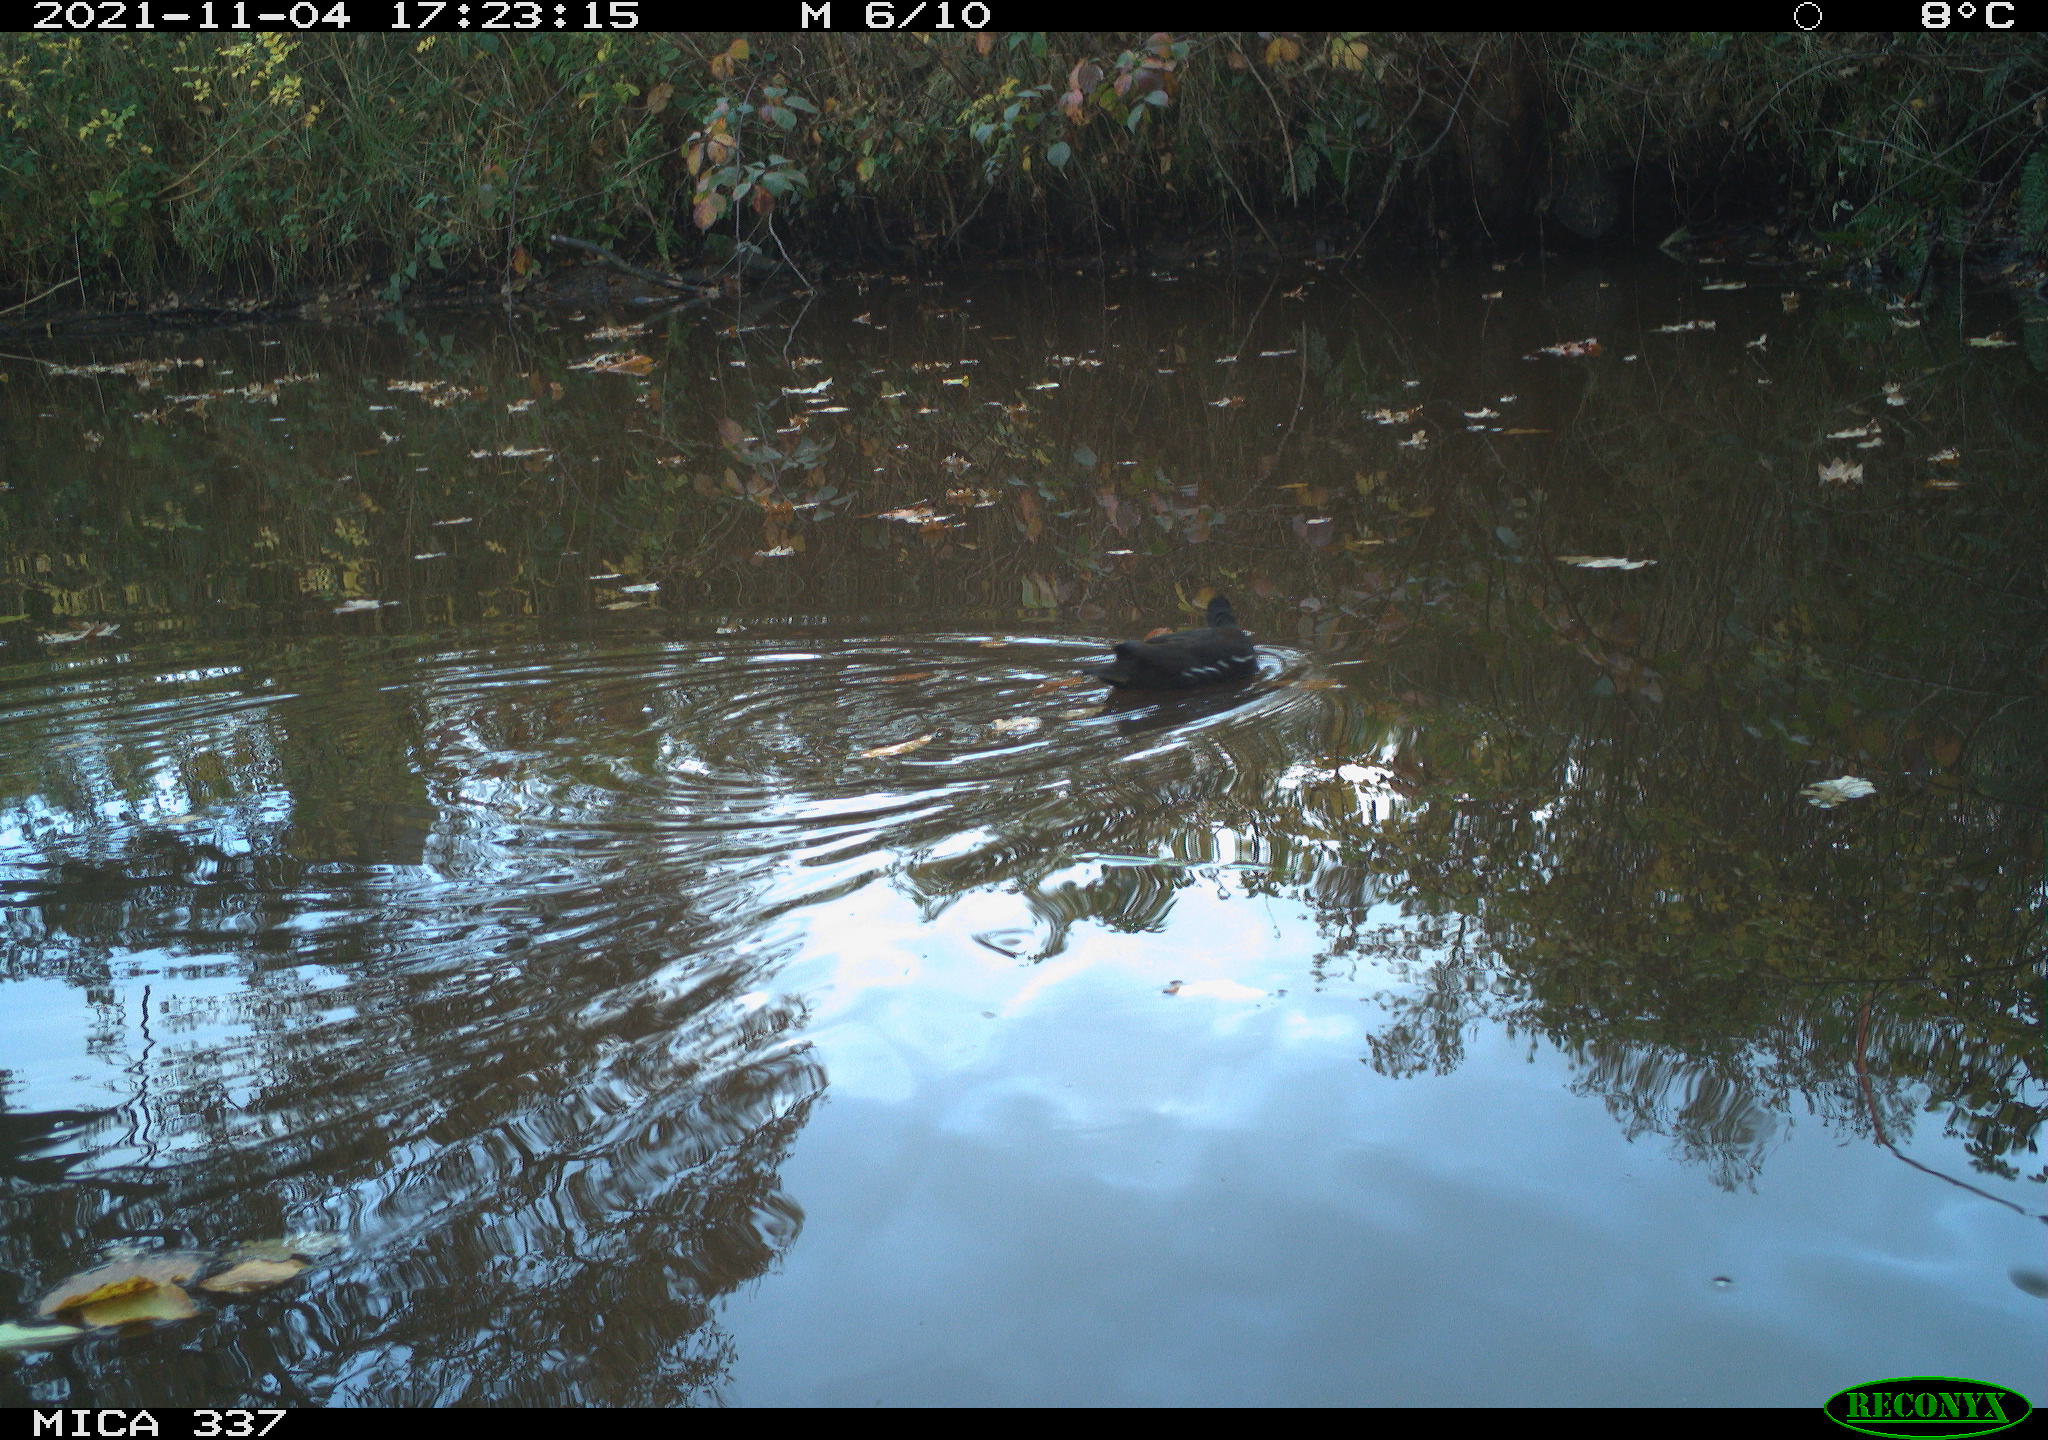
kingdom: Animalia
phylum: Chordata
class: Aves
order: Gruiformes
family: Rallidae
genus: Gallinula
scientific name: Gallinula chloropus
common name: Common moorhen
